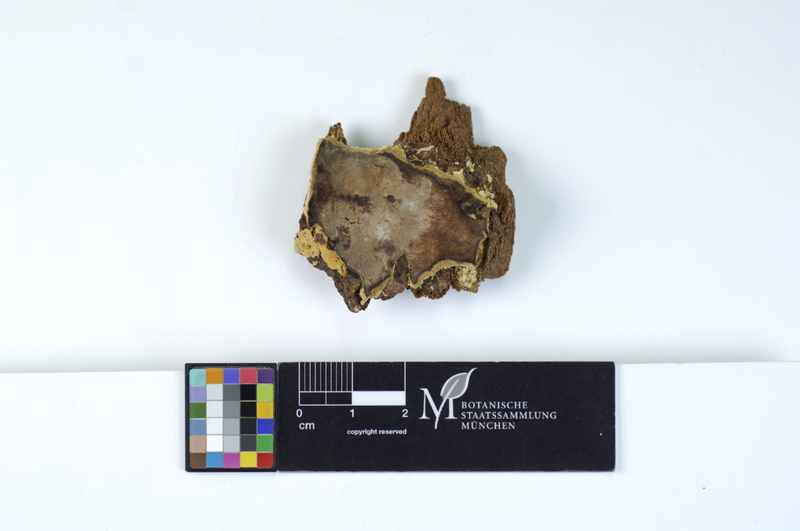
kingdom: Fungi
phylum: Basidiomycota
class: Agaricomycetes
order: Polyporales
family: Meripilaceae
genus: Rigidoporus
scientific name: Rigidoporus crocatus
